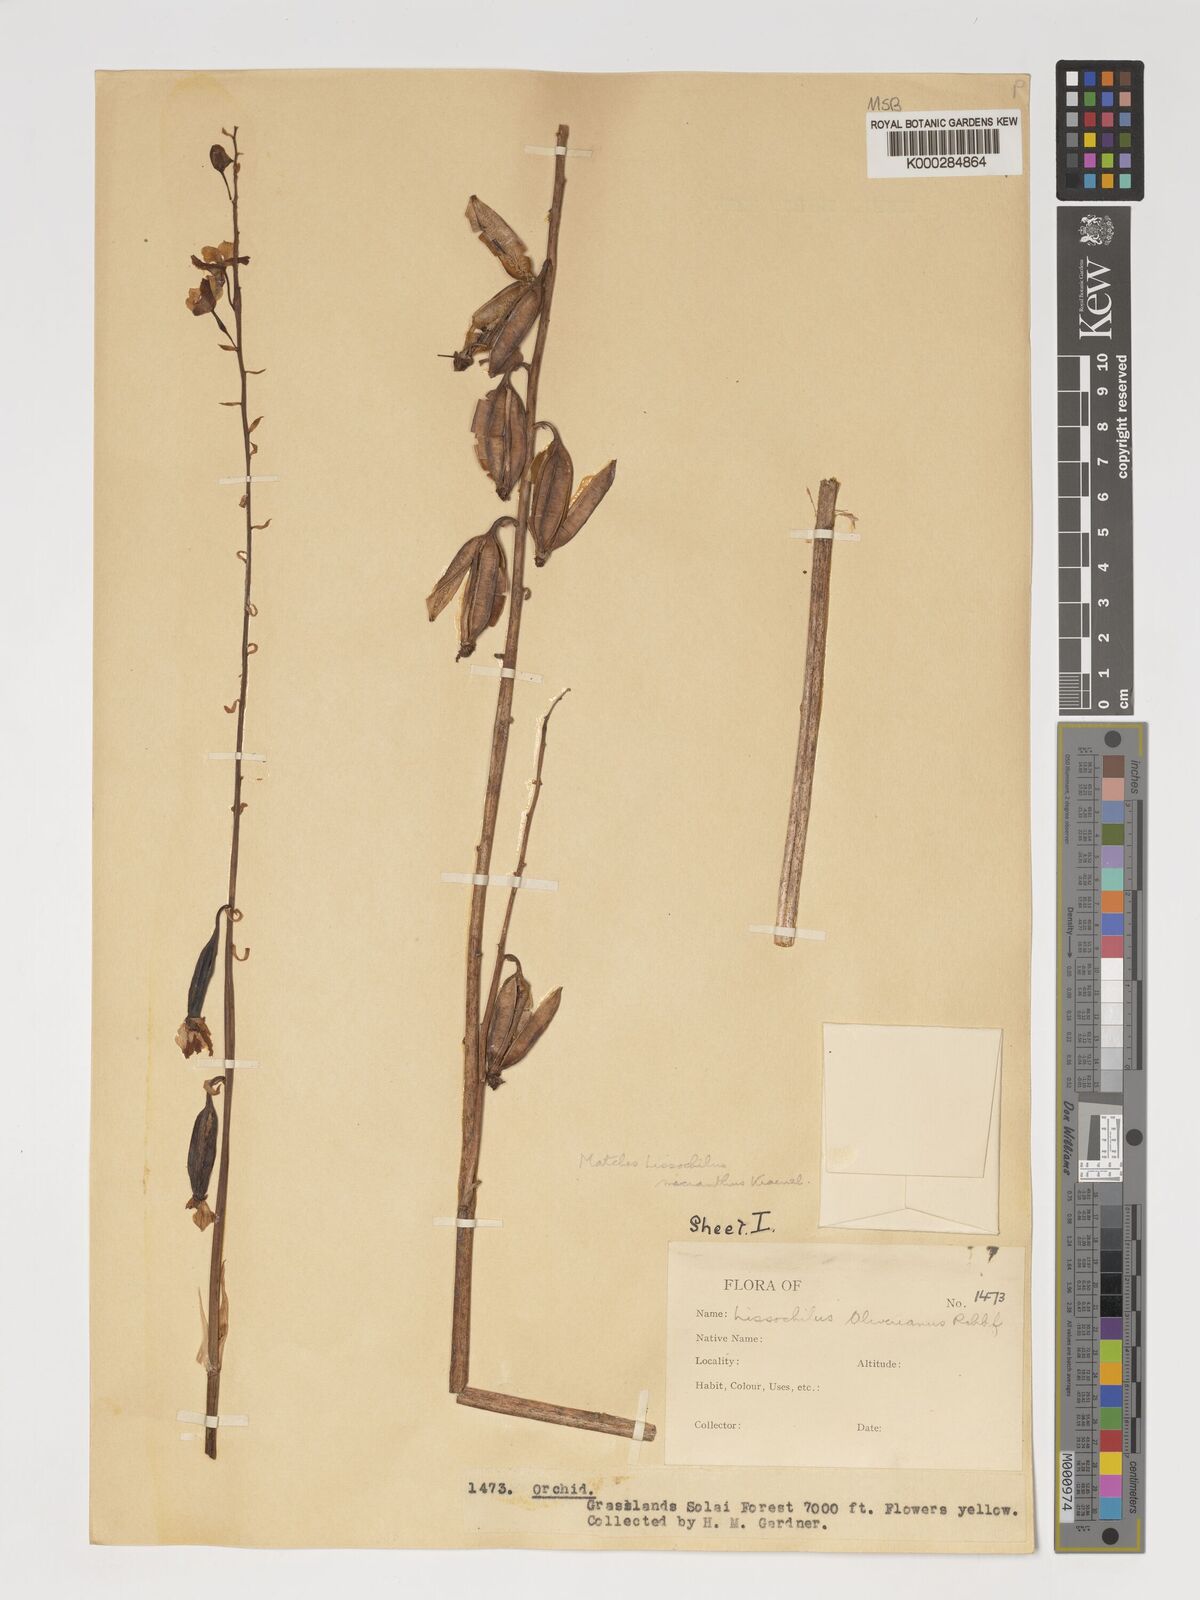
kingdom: Plantae
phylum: Tracheophyta
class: Liliopsida
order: Asparagales
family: Orchidaceae
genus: Eulophia
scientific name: Eulophia streptopetala
